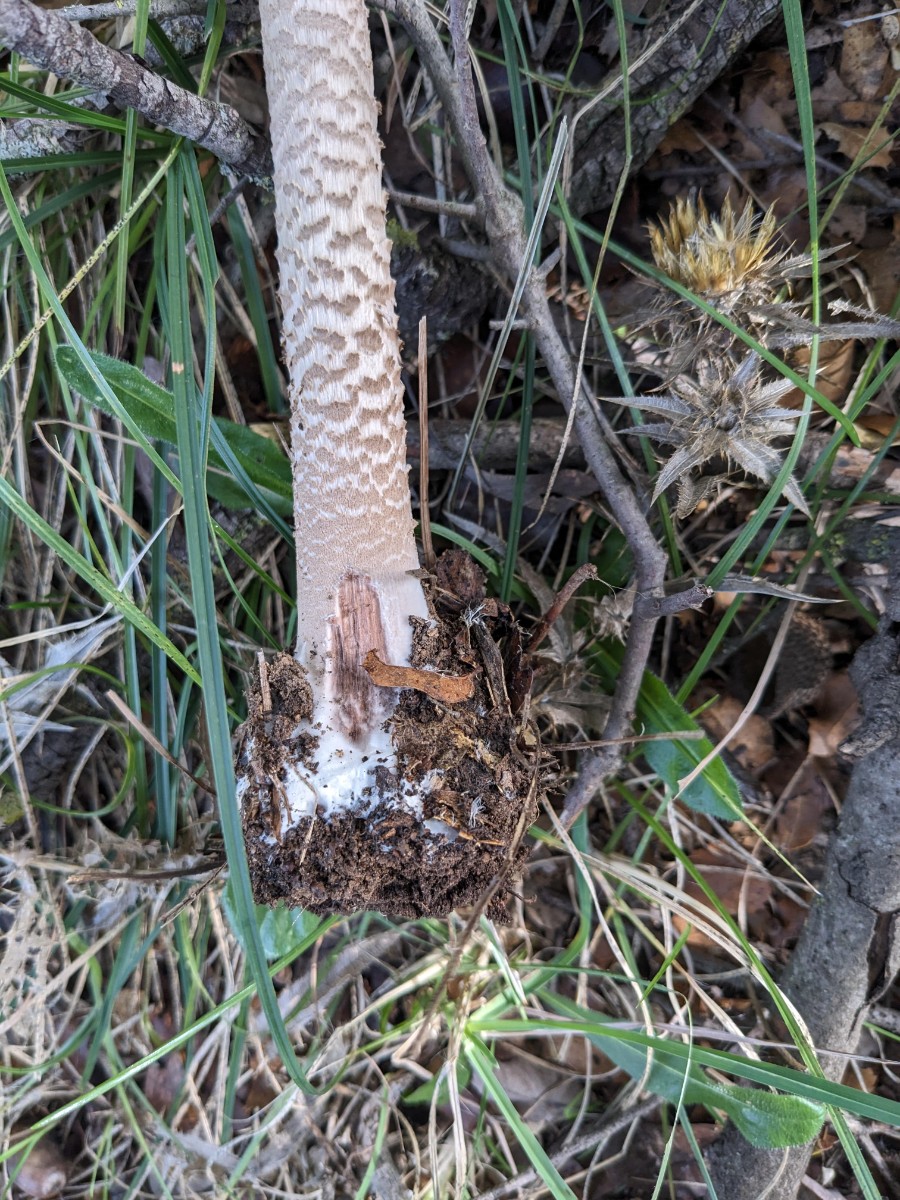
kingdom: Fungi
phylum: Basidiomycota
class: Agaricomycetes
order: Agaricales
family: Agaricaceae
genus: Macrolepiota
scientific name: Macrolepiota fuliginosa
